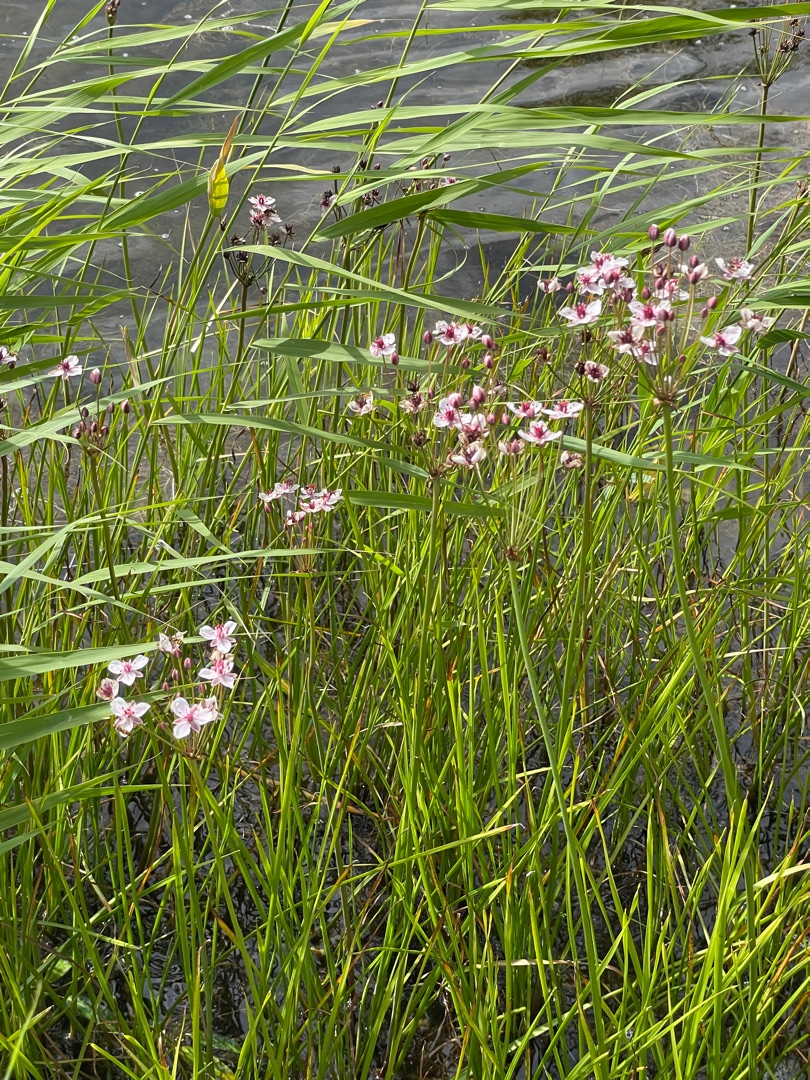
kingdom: Plantae
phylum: Tracheophyta
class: Liliopsida
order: Alismatales
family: Butomaceae
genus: Butomus
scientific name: Butomus umbellatus
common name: Brudelys
